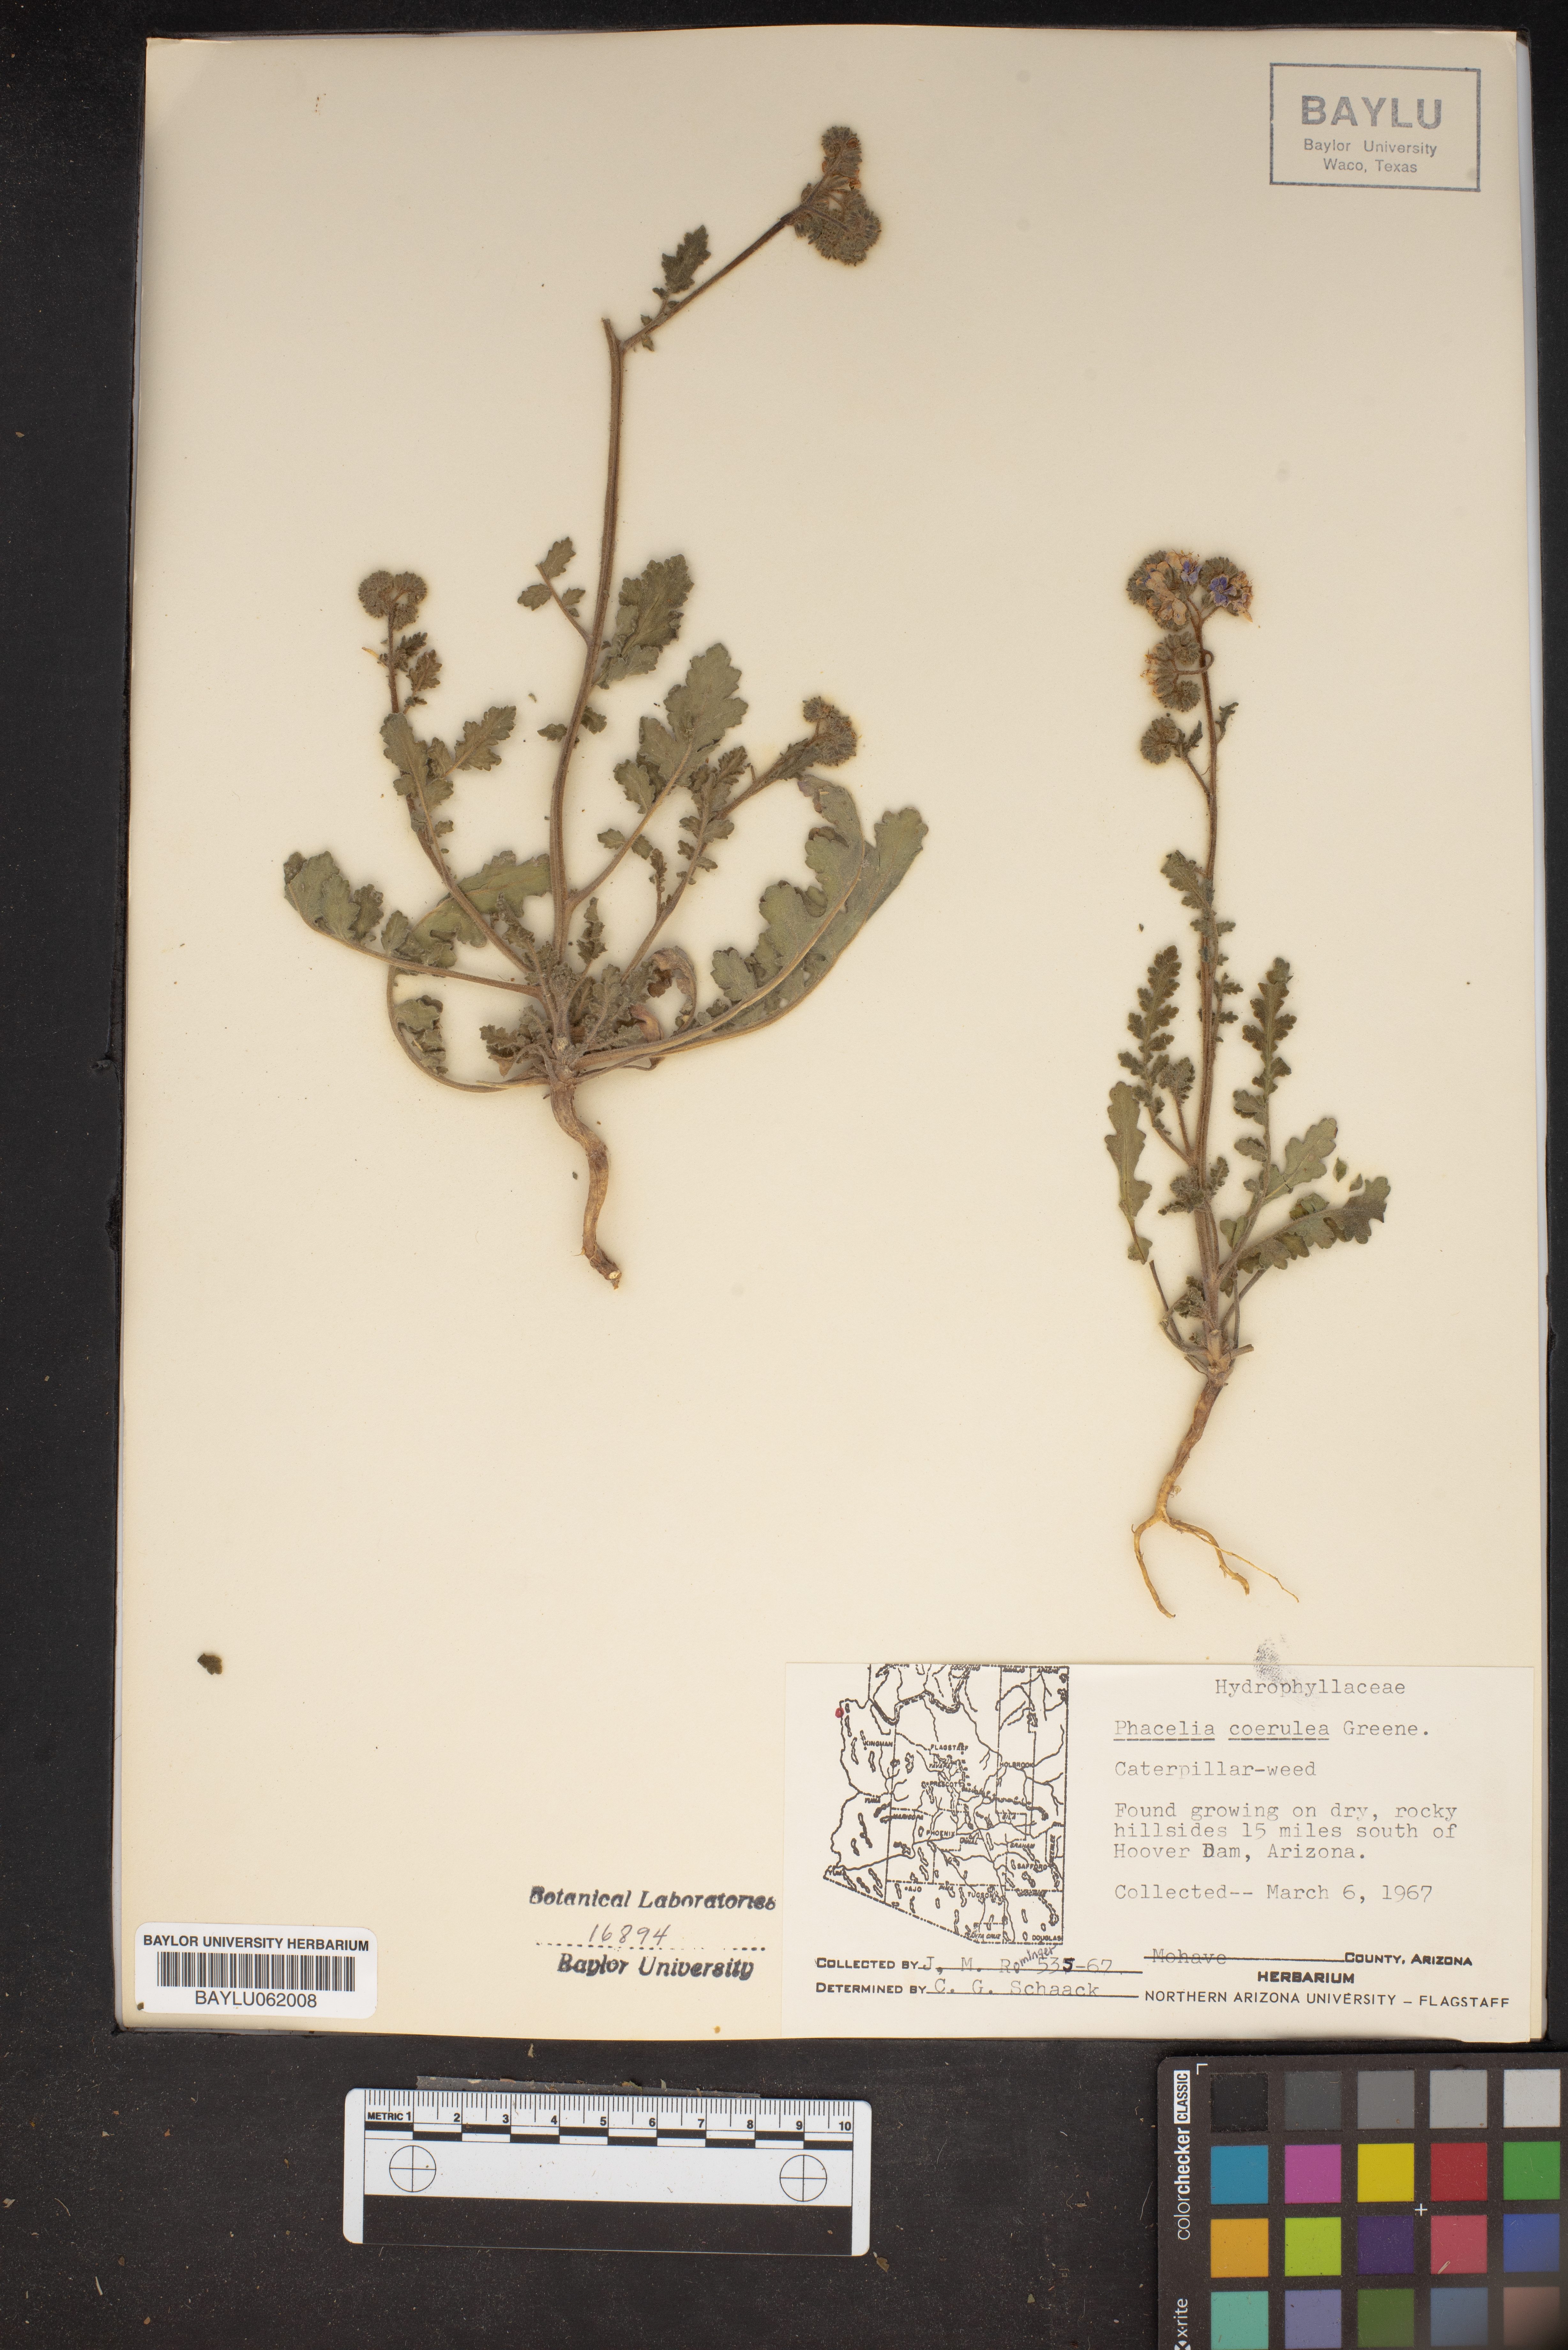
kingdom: Plantae
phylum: Tracheophyta
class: Magnoliopsida
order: Boraginales
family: Hydrophyllaceae
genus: Phacelia
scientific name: Phacelia coerulea
